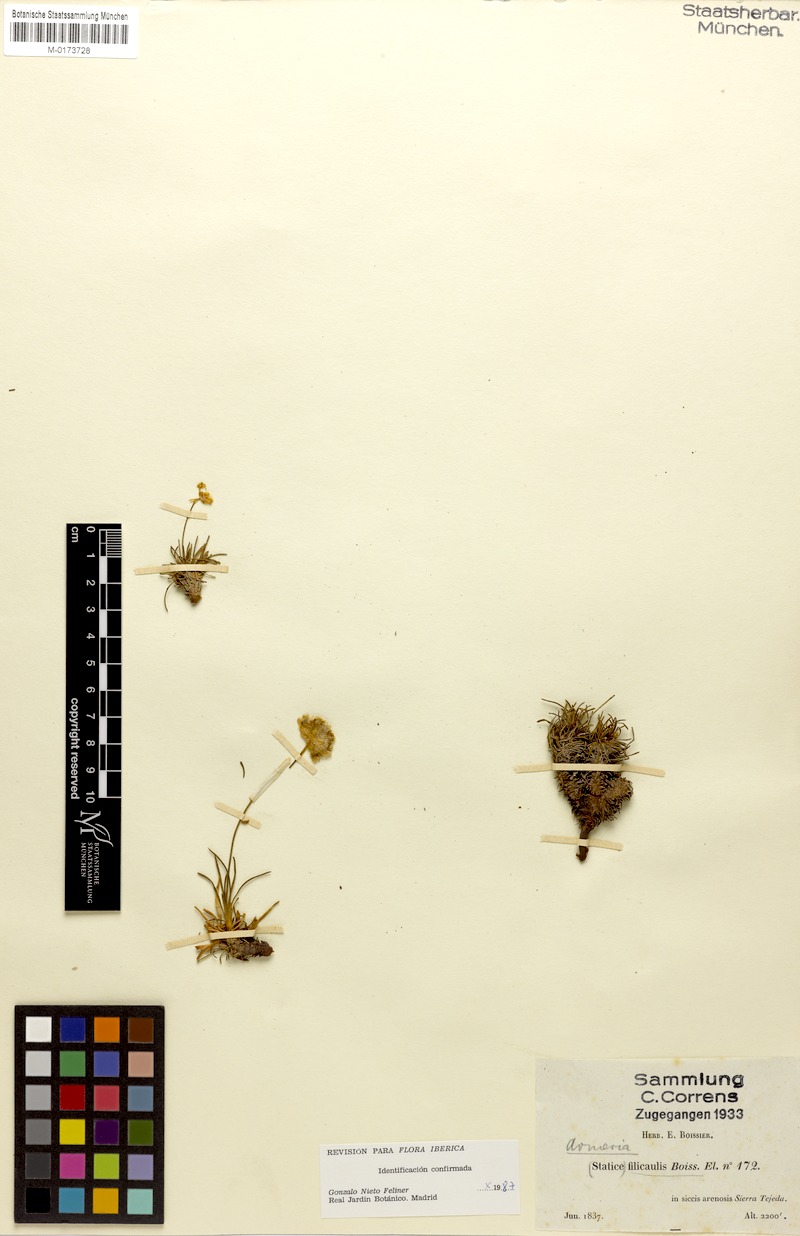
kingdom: Plantae
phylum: Tracheophyta
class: Magnoliopsida
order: Caryophyllales
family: Plumbaginaceae
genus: Armeria
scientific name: Armeria filicaulis
